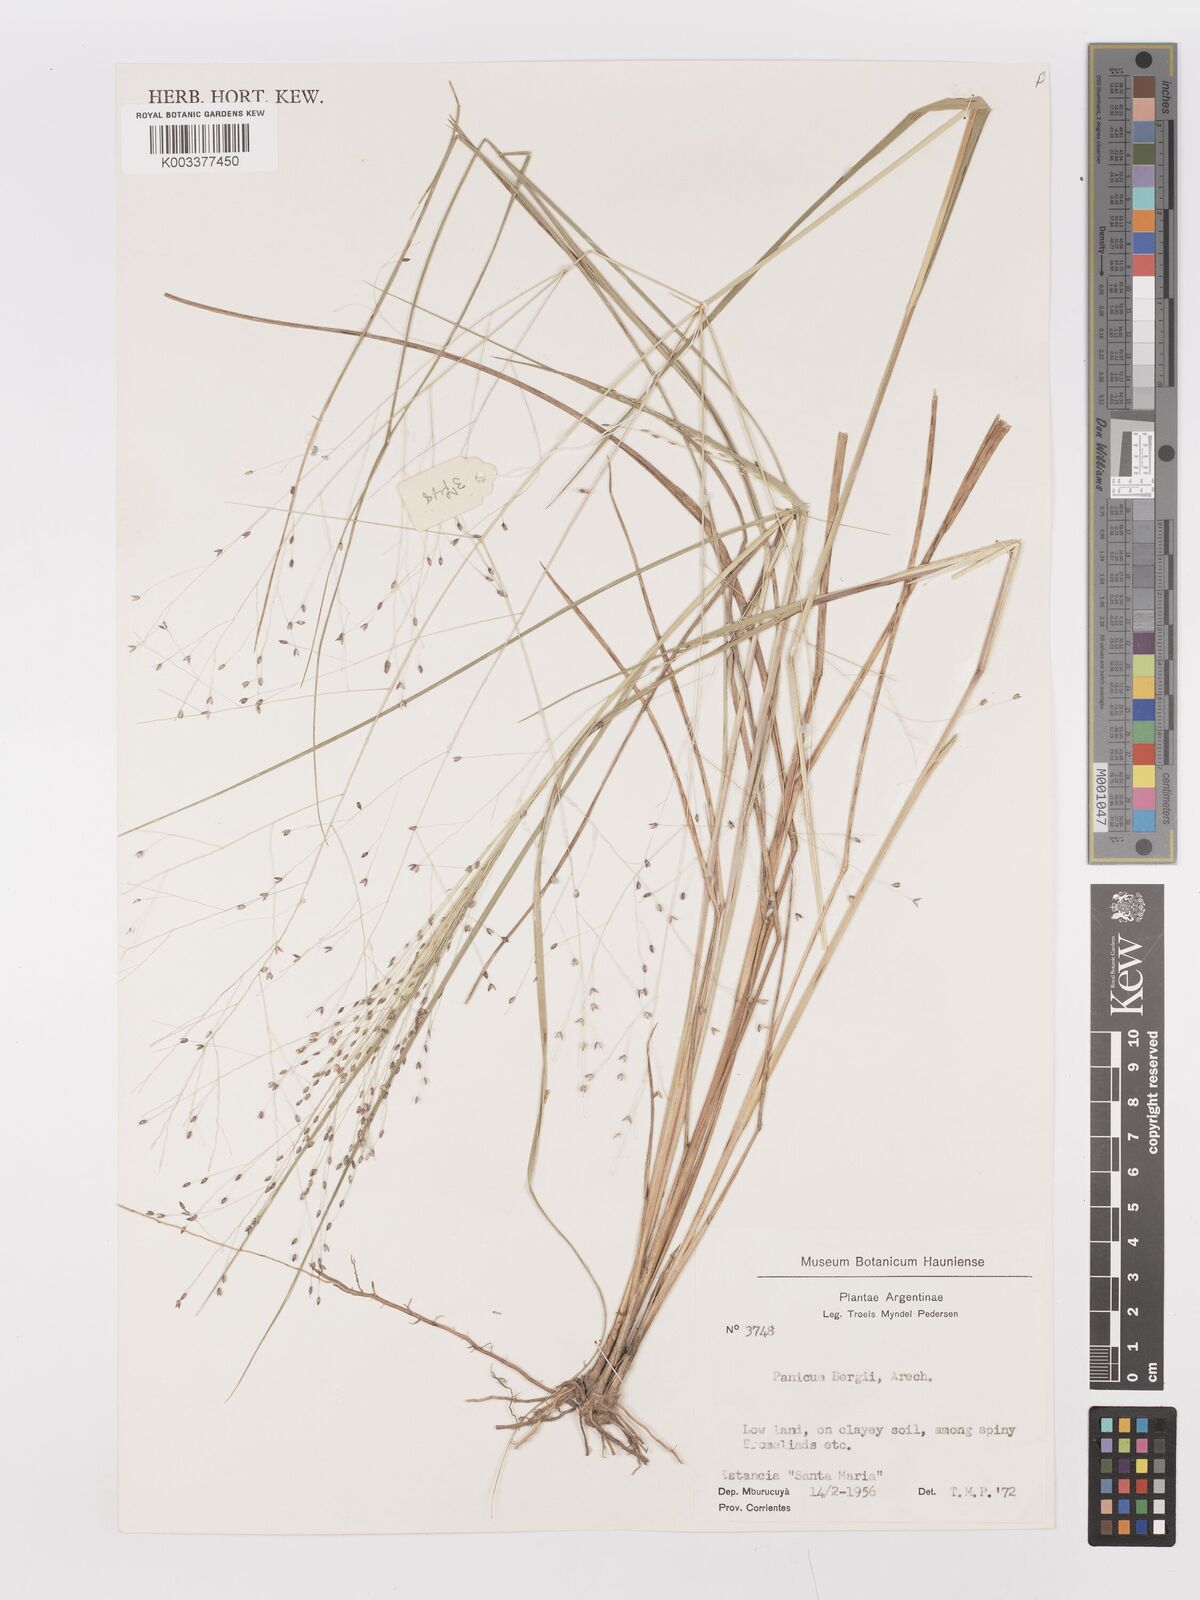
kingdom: Plantae
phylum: Tracheophyta
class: Liliopsida
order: Poales
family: Poaceae
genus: Panicum
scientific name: Panicum bergii
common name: Berg's panicgrass
